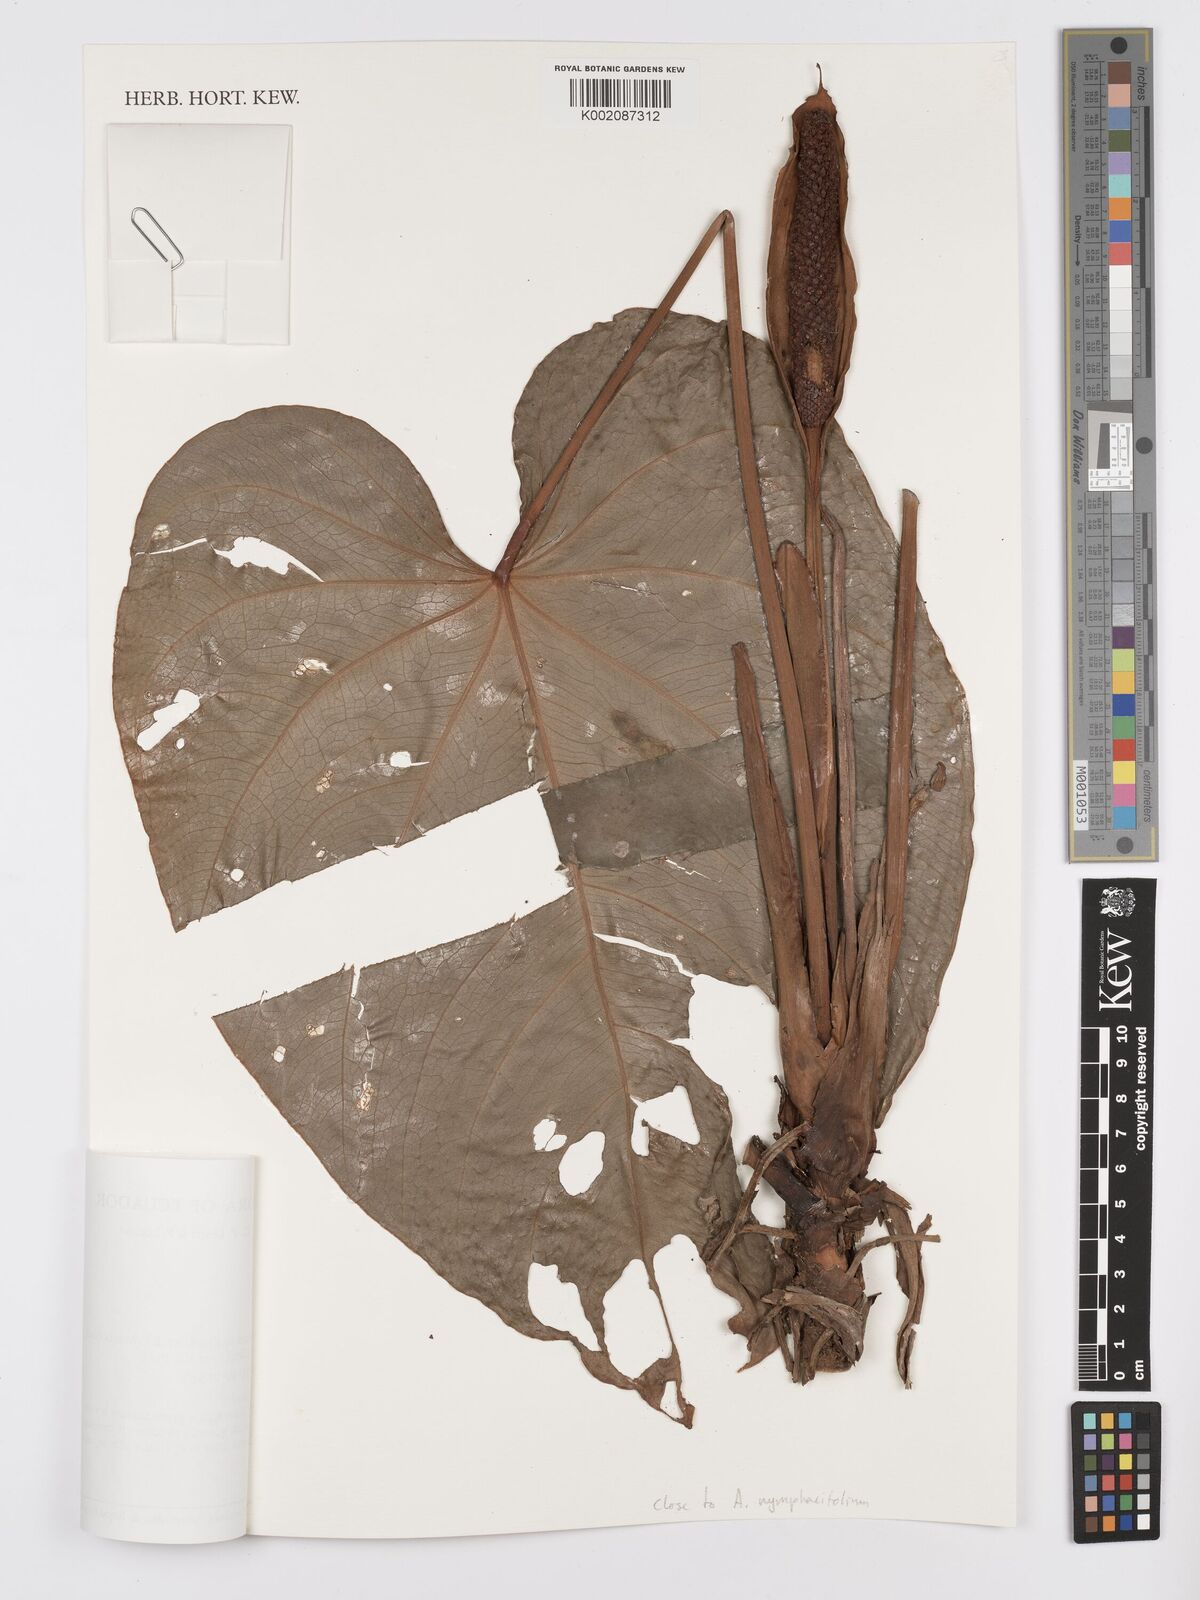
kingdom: Plantae
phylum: Tracheophyta
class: Liliopsida
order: Alismatales
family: Araceae
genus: Anthurium
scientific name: Anthurium
